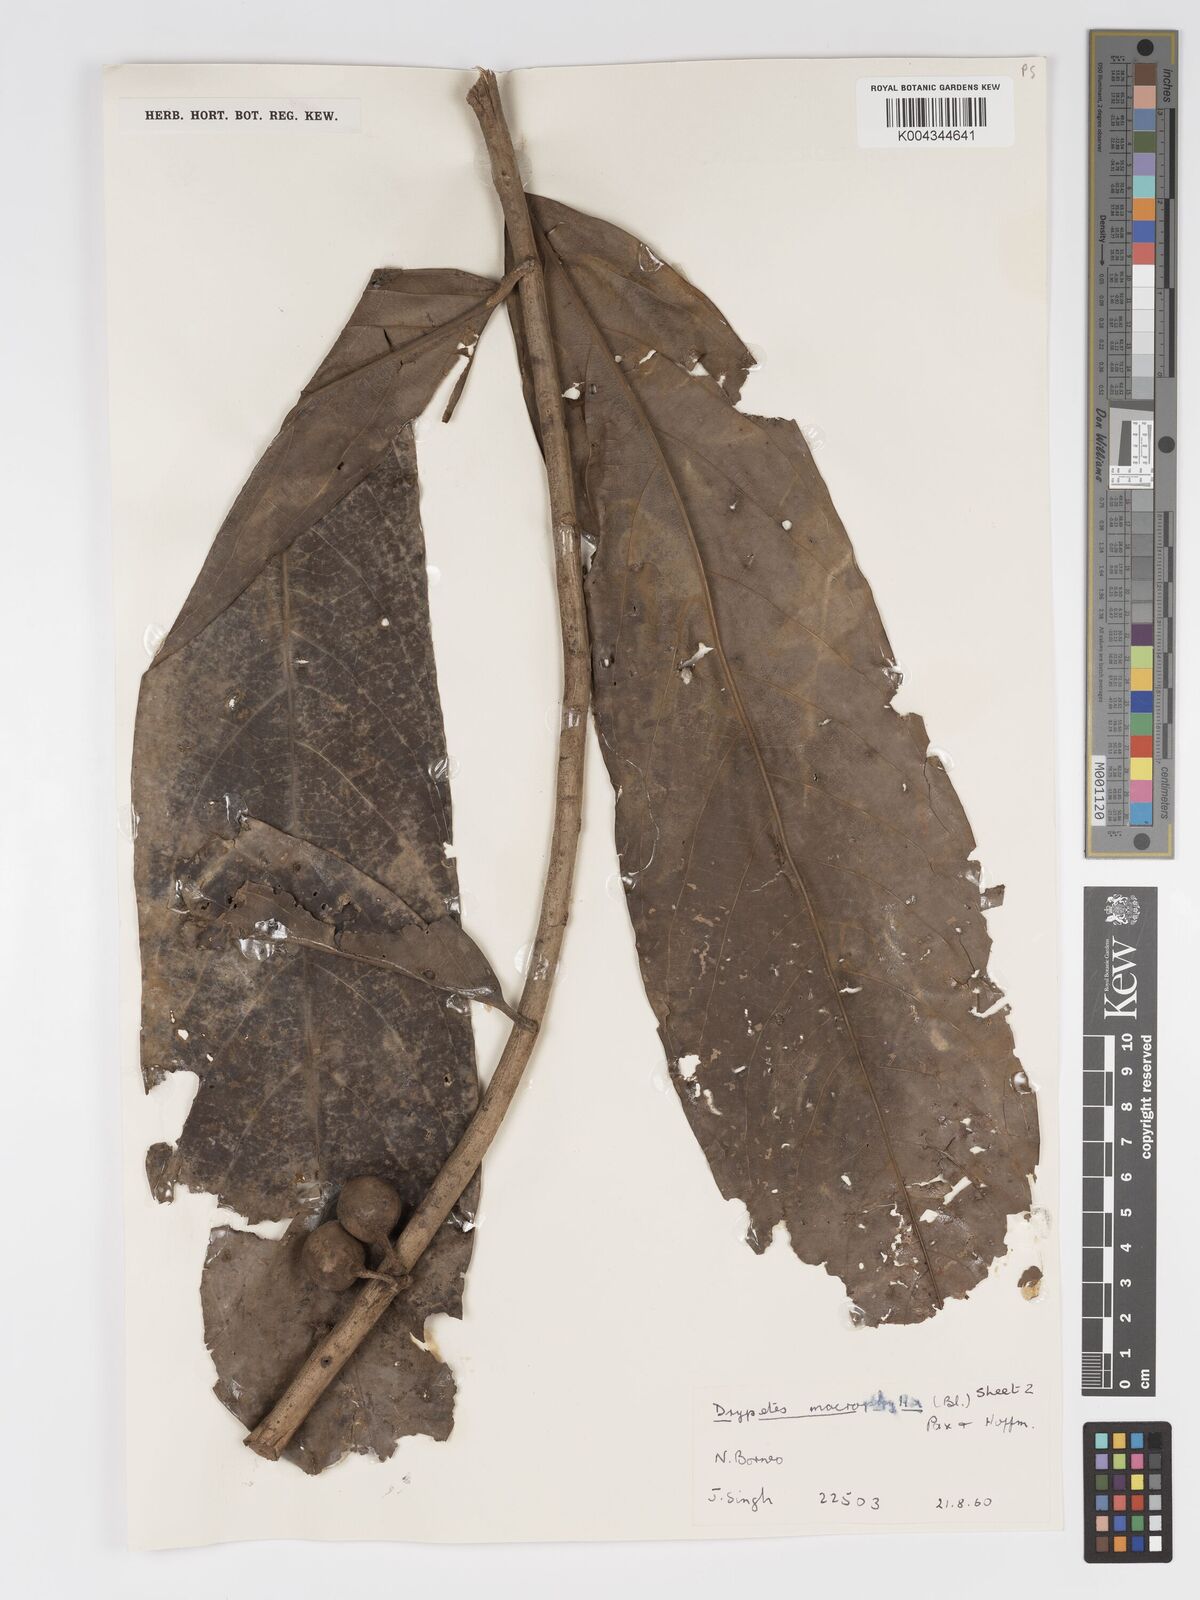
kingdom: Plantae
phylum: Tracheophyta
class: Magnoliopsida
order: Malpighiales
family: Putranjivaceae
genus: Drypetes
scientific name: Drypetes longifolia
